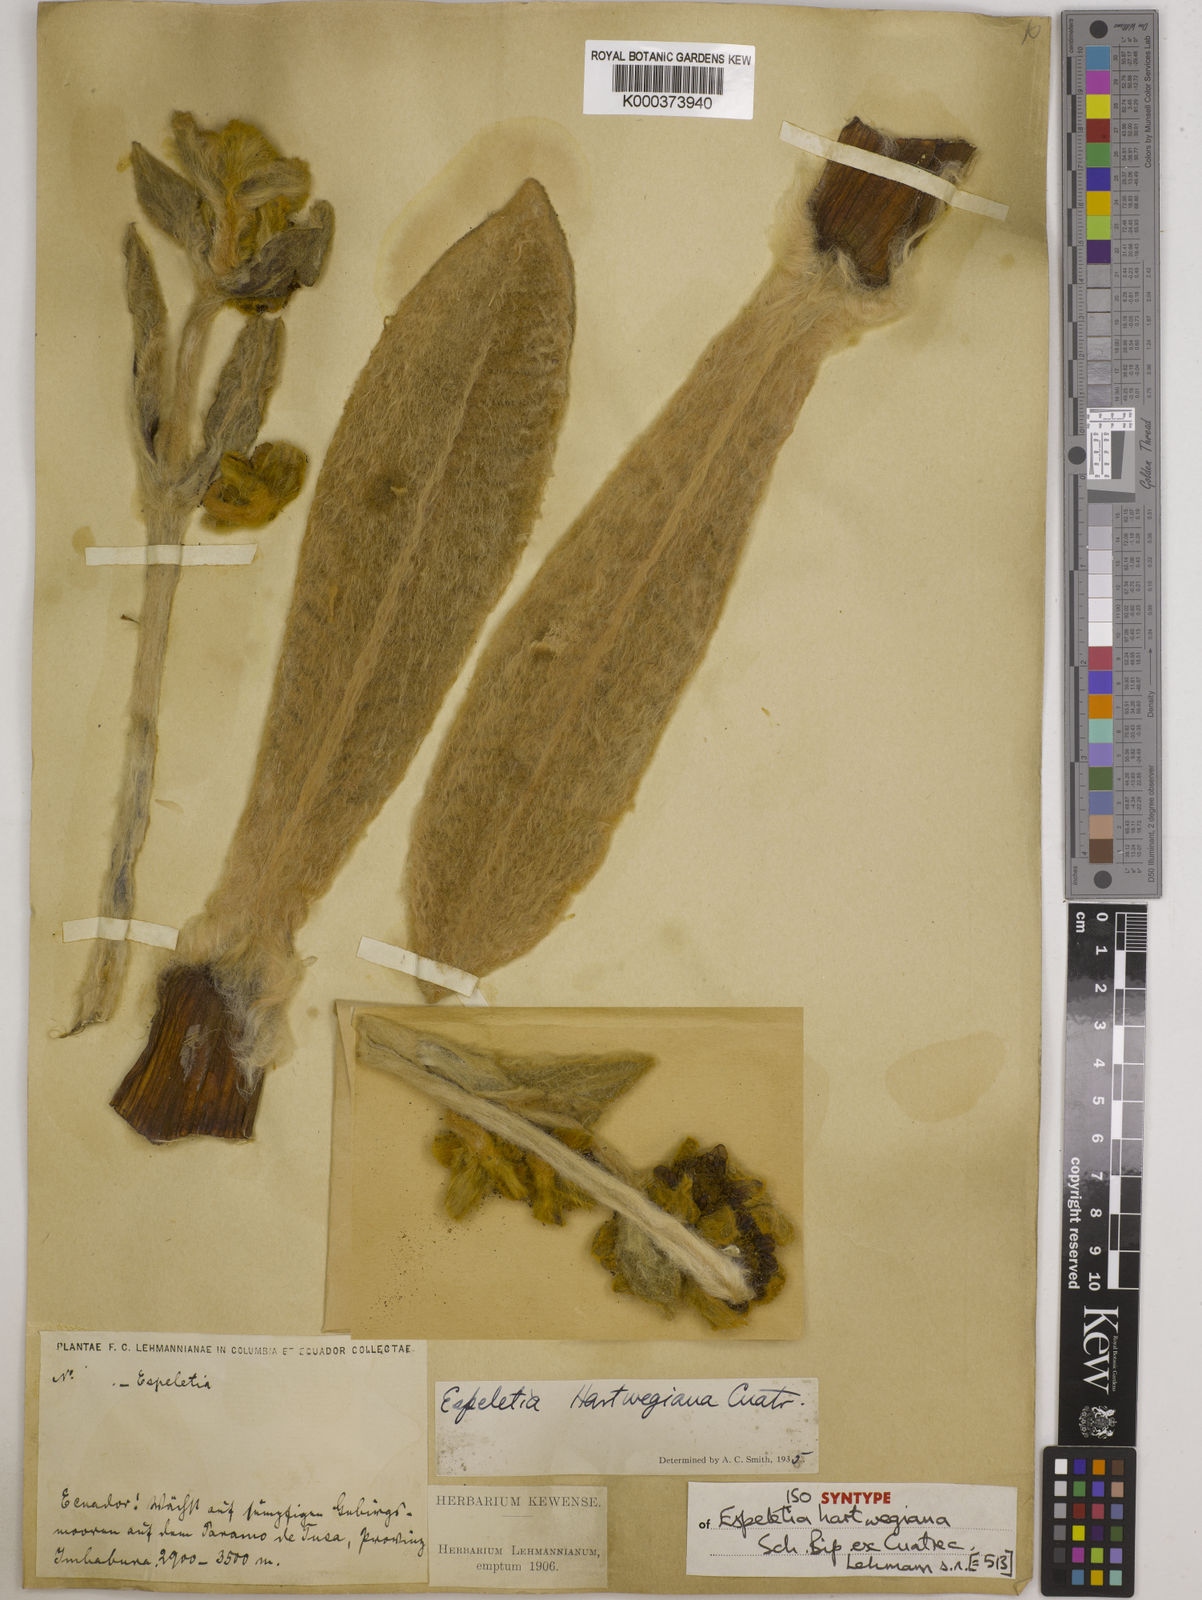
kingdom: Plantae
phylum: Tracheophyta
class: Magnoliopsida
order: Asterales
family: Asteraceae
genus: Espeletia
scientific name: Espeletia hartwegiana
